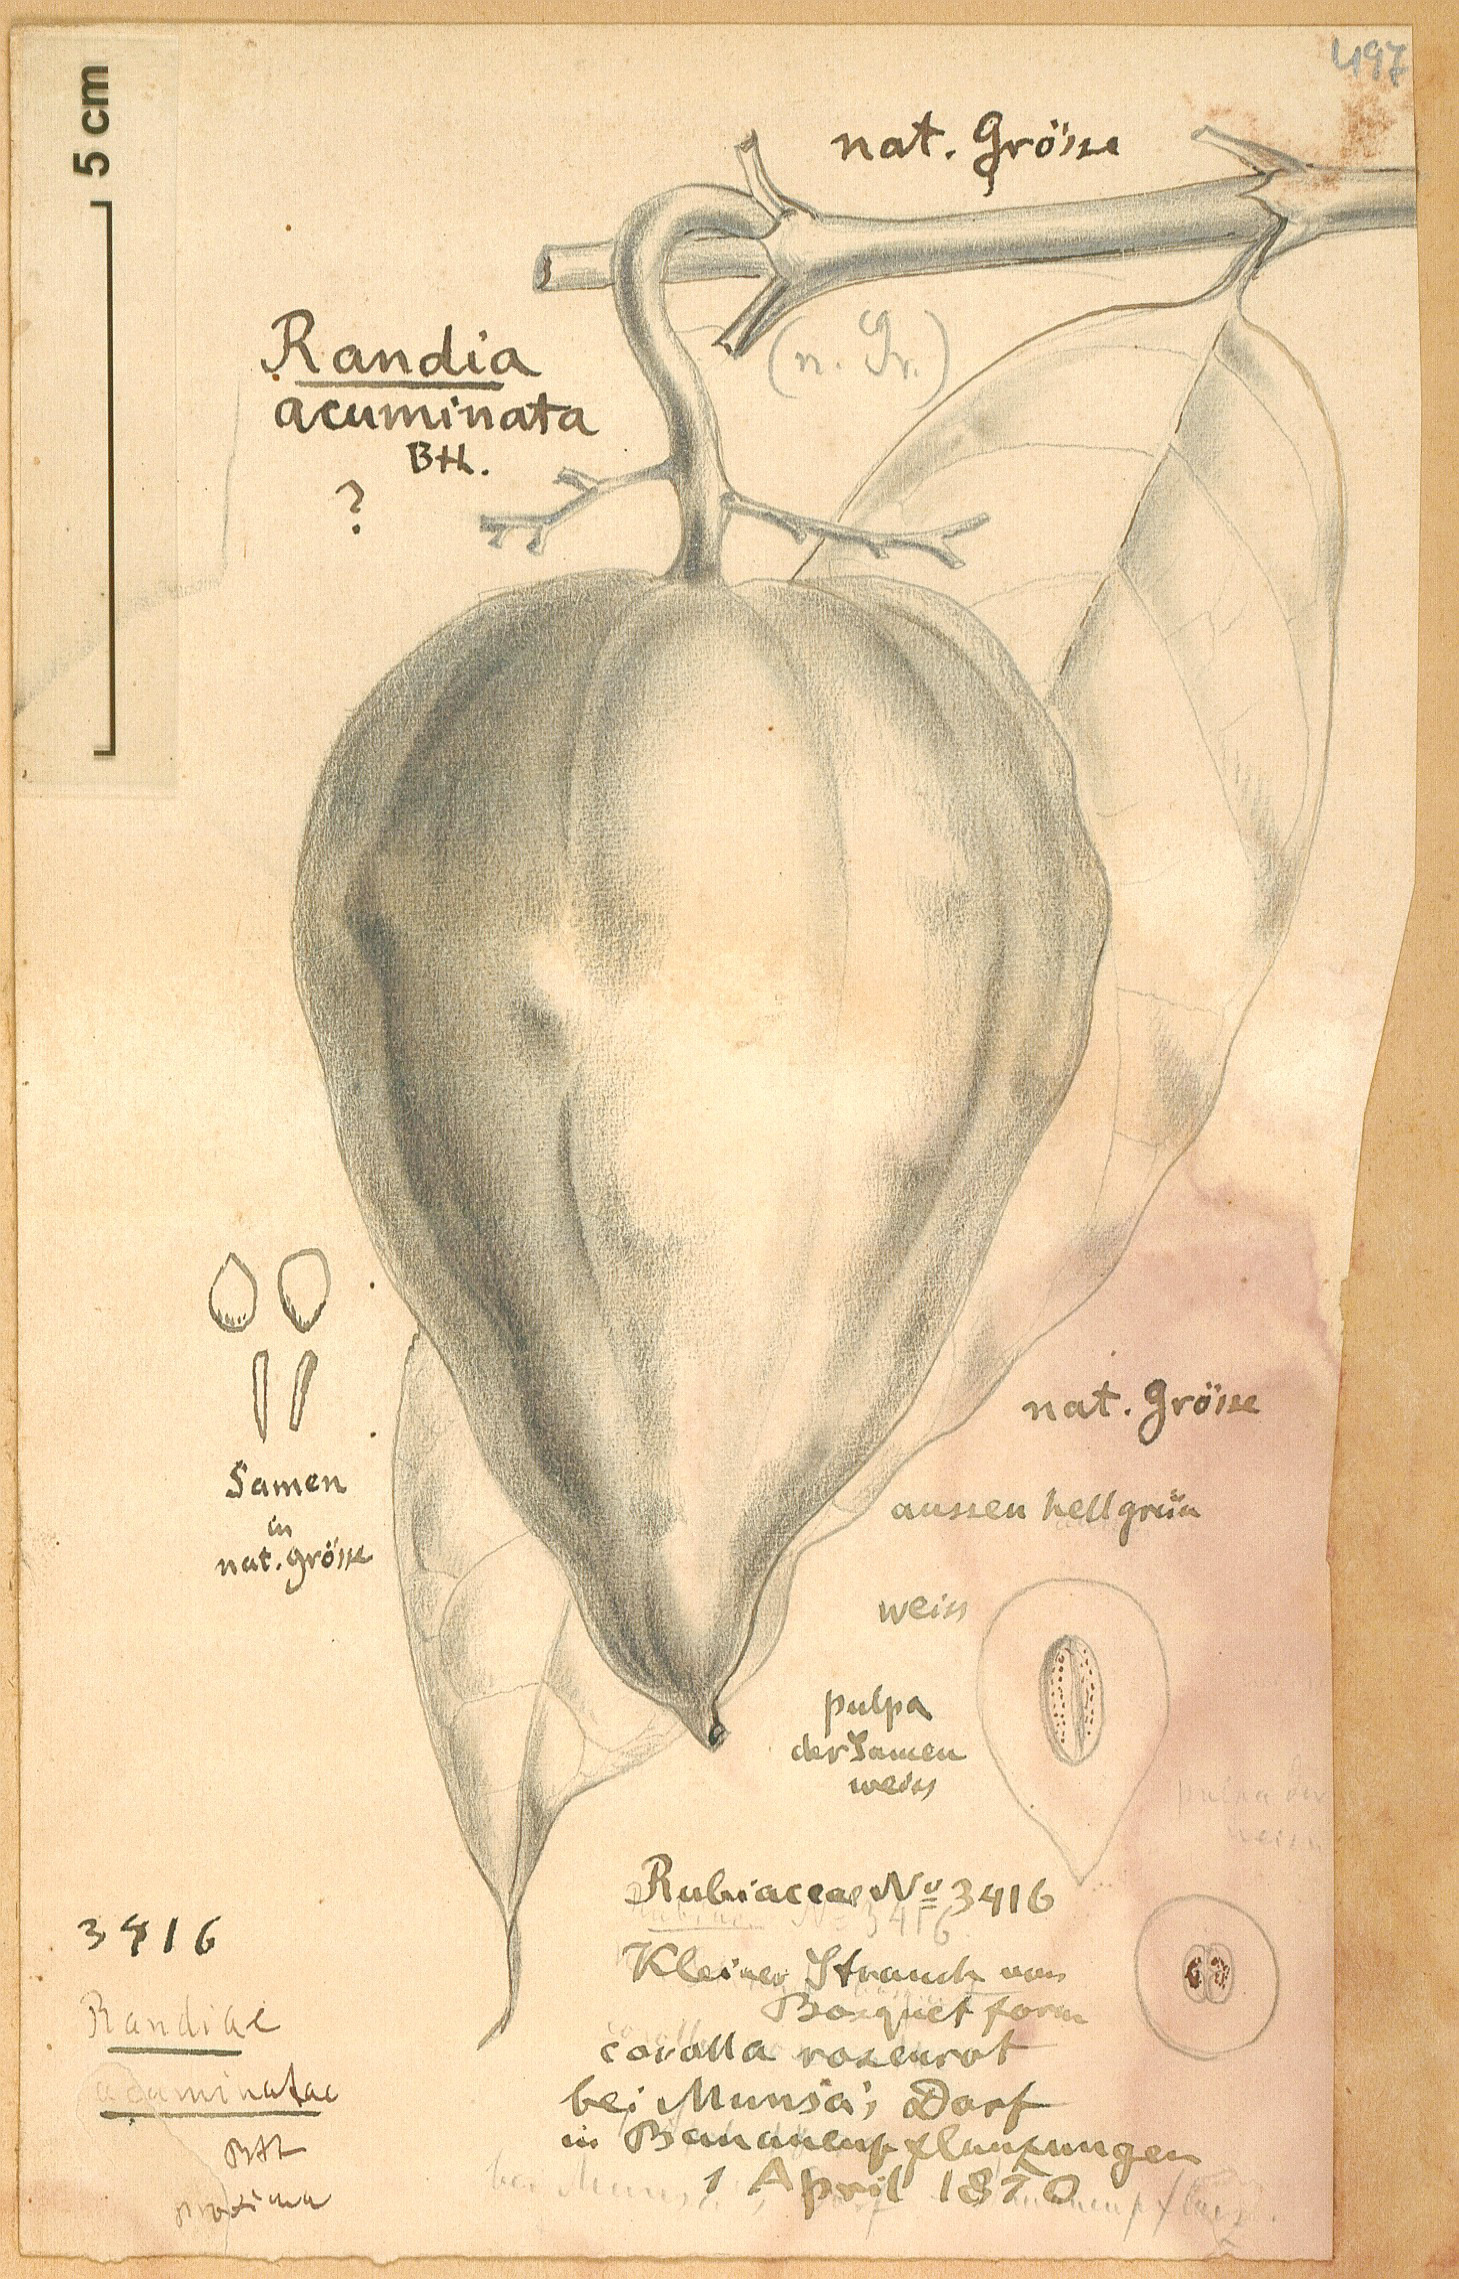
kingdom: Plantae
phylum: Tracheophyta
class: Magnoliopsida
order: Gentianales
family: Rubiaceae
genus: Massularia
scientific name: Massularia acuminata
